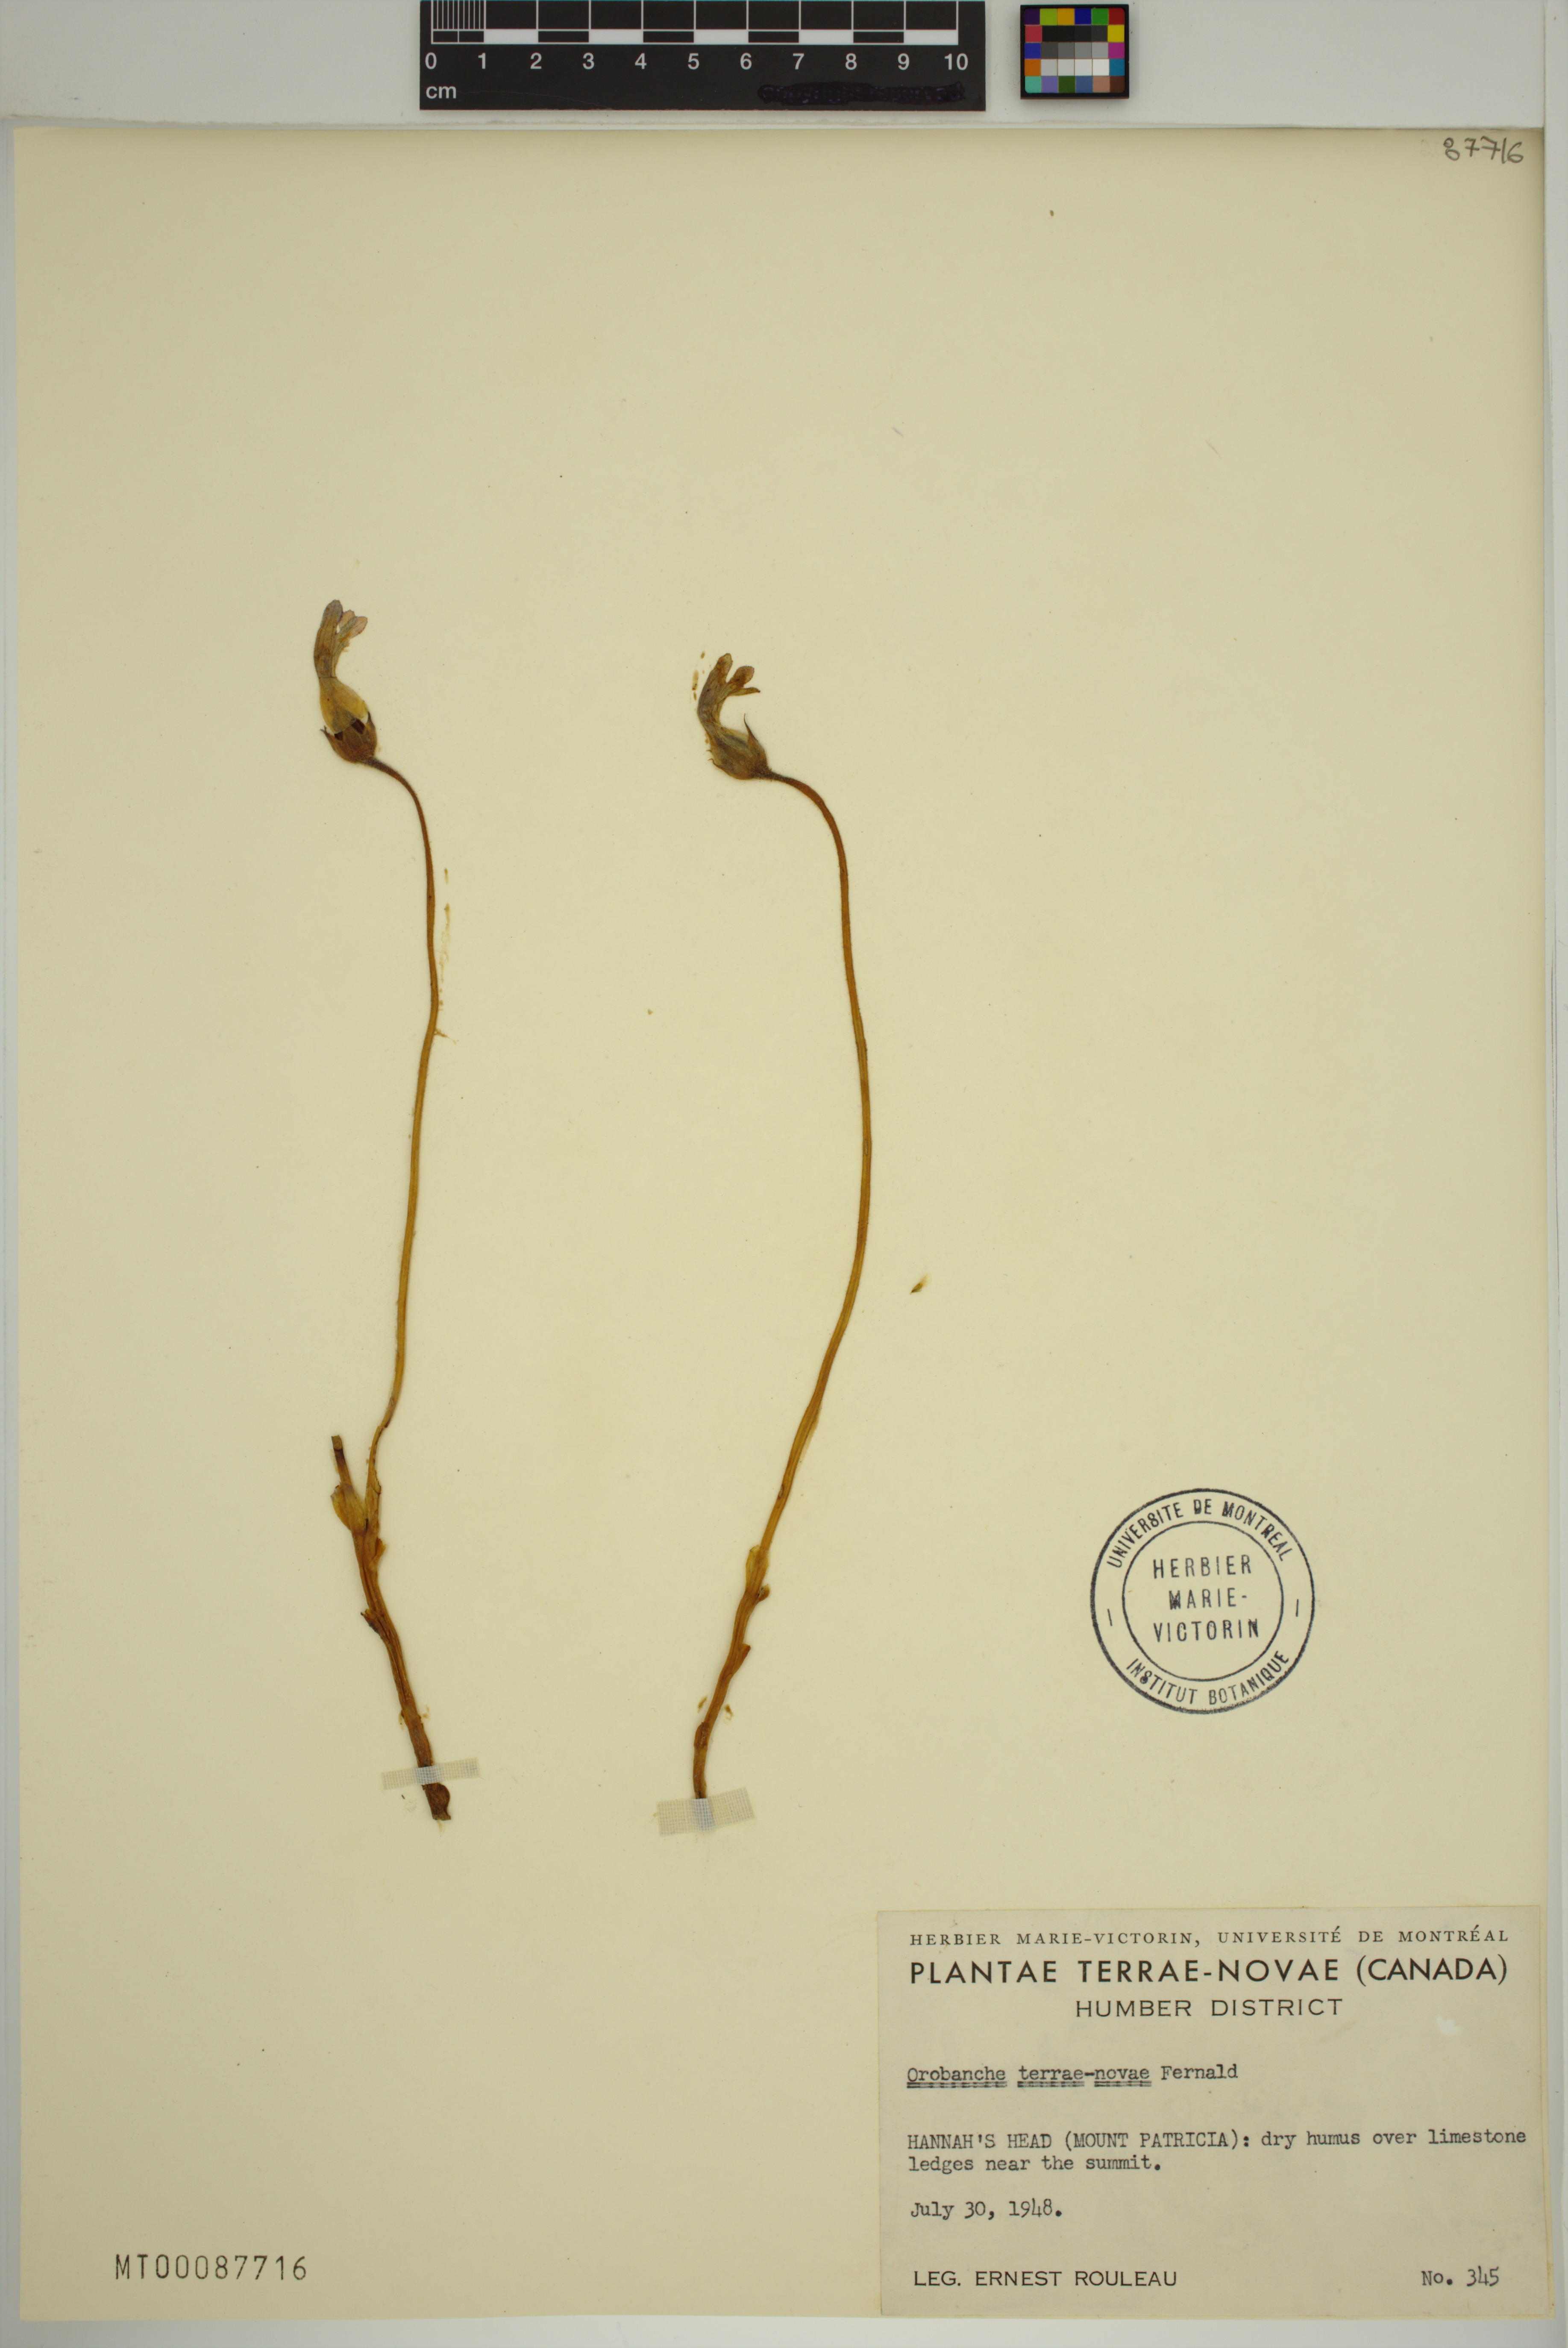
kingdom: Plantae
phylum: Tracheophyta
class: Magnoliopsida
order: Lamiales
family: Orobanchaceae
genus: Aphyllon
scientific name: Aphyllon uniflorum
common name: One-flowered broomrape
